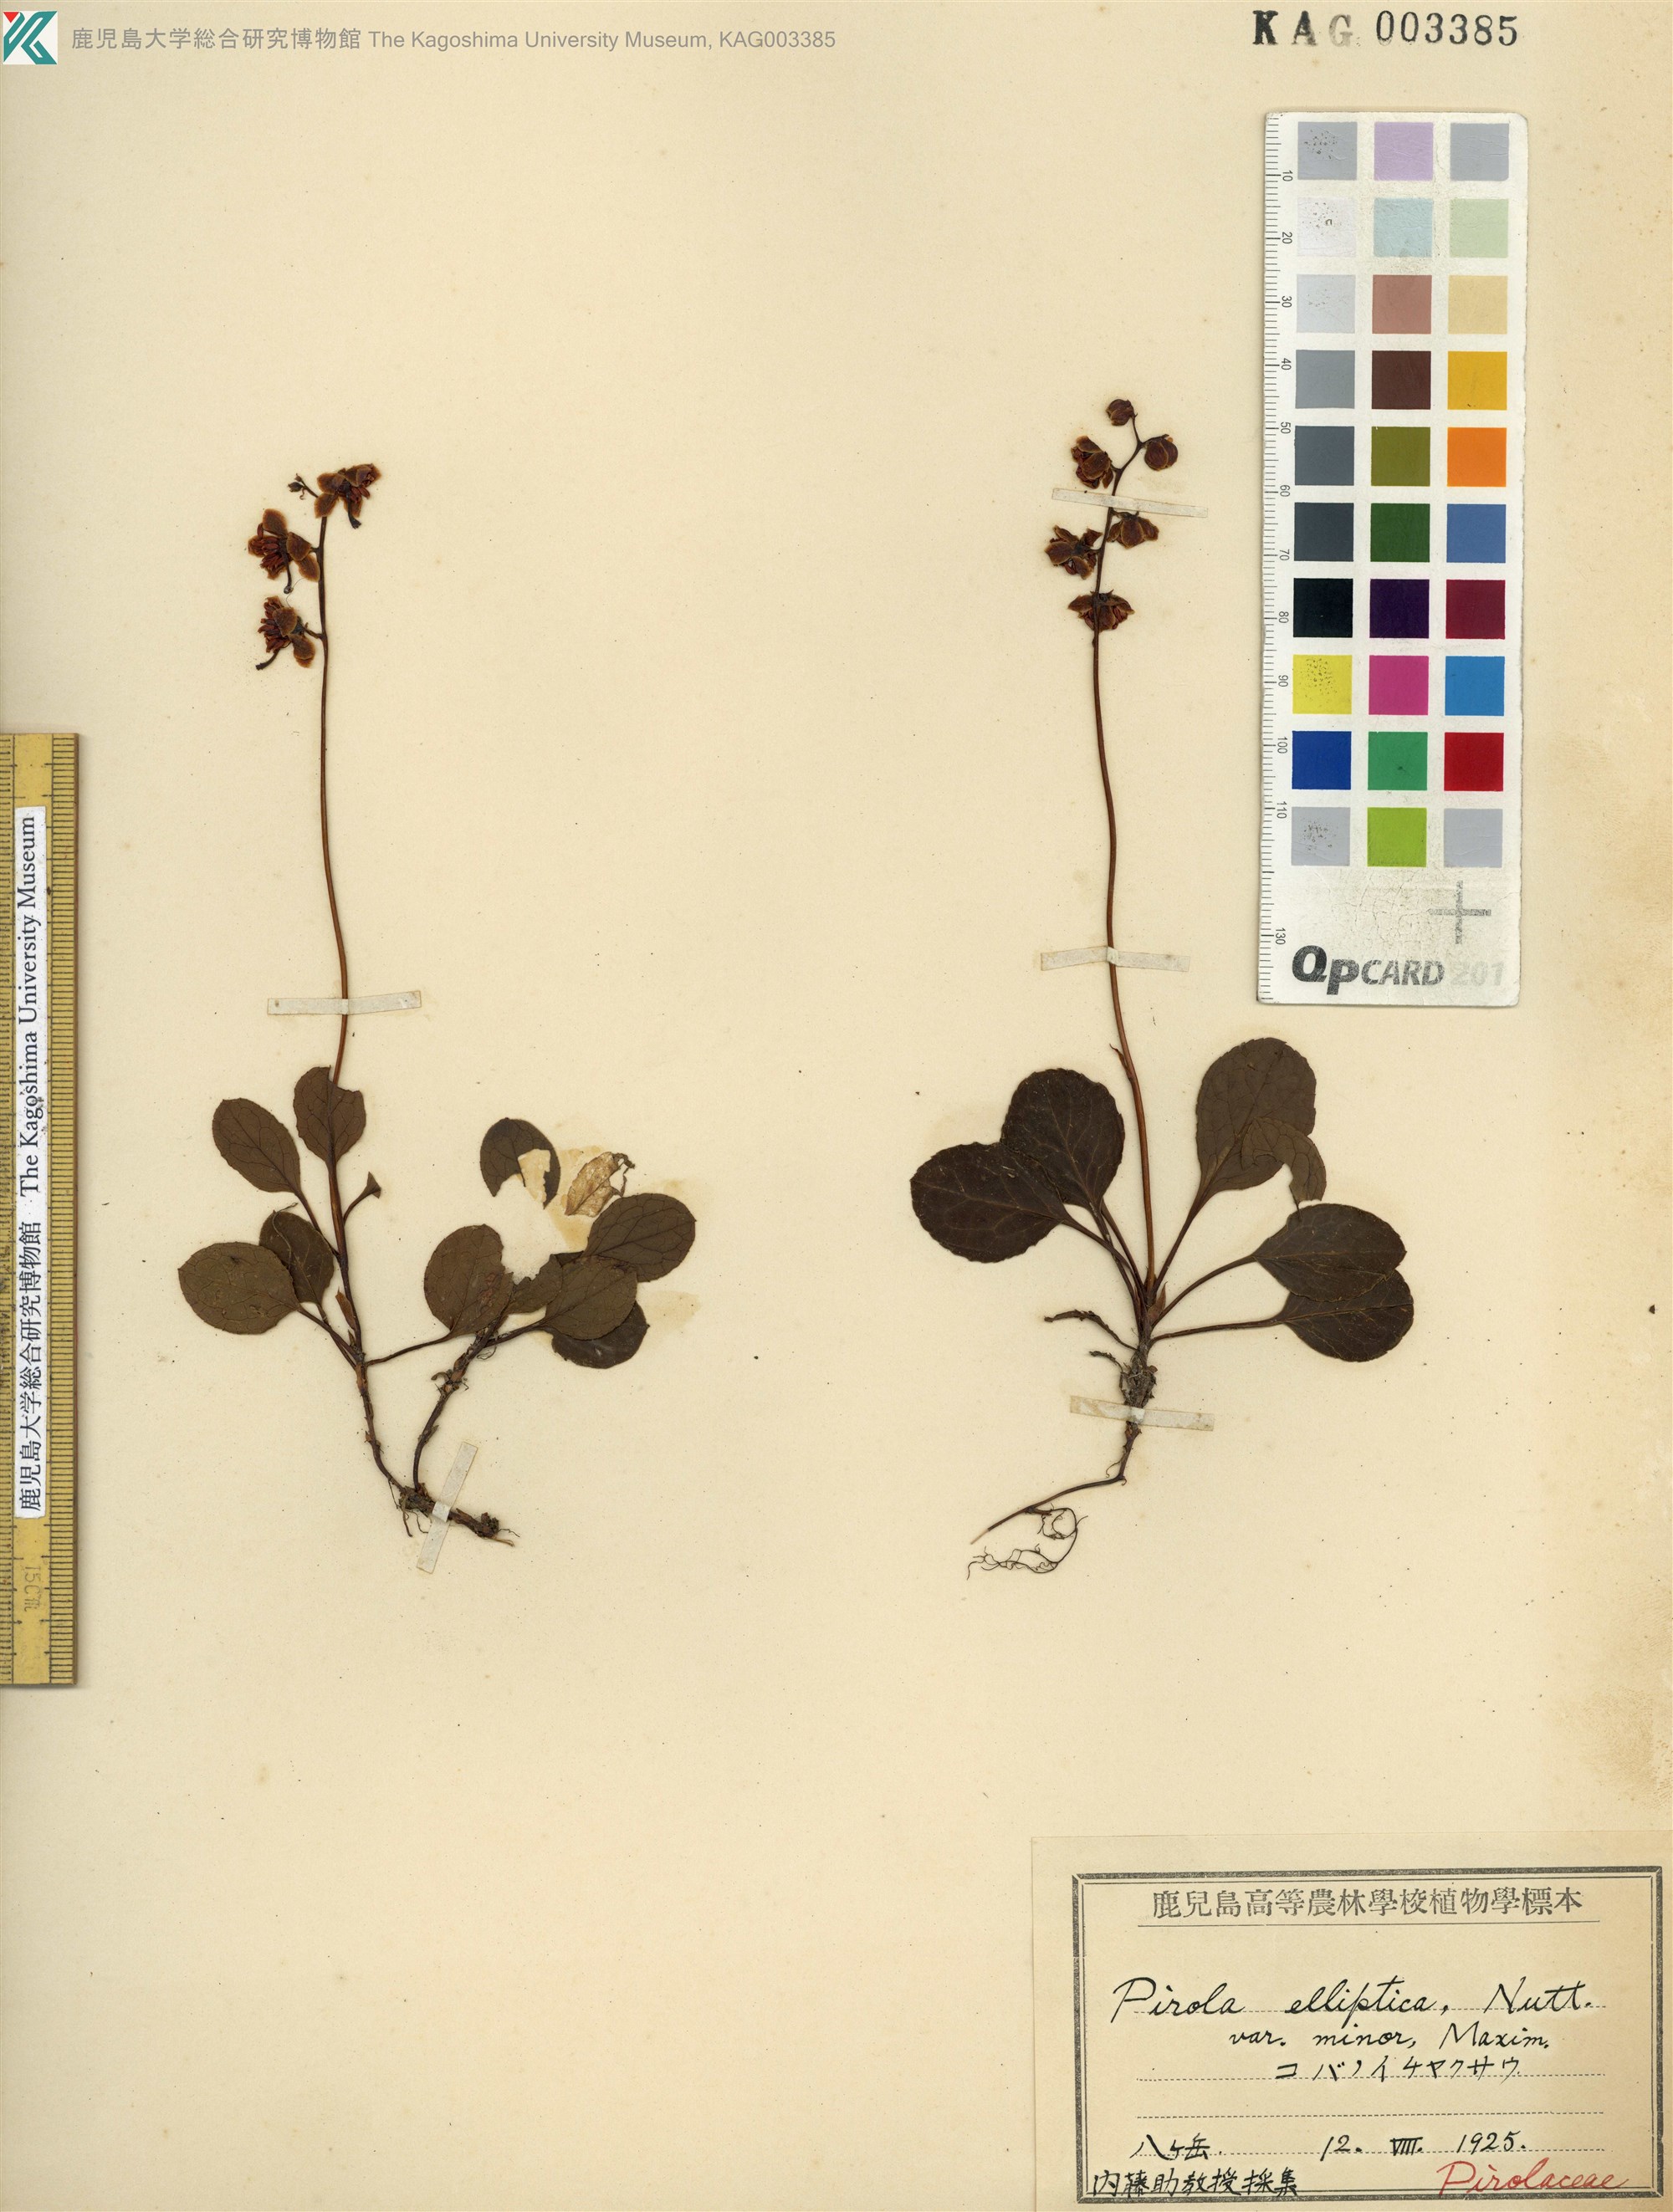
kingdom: Plantae
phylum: Tracheophyta
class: Magnoliopsida
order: Ericales
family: Ericaceae
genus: Pyrola
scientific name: Pyrola alpina
